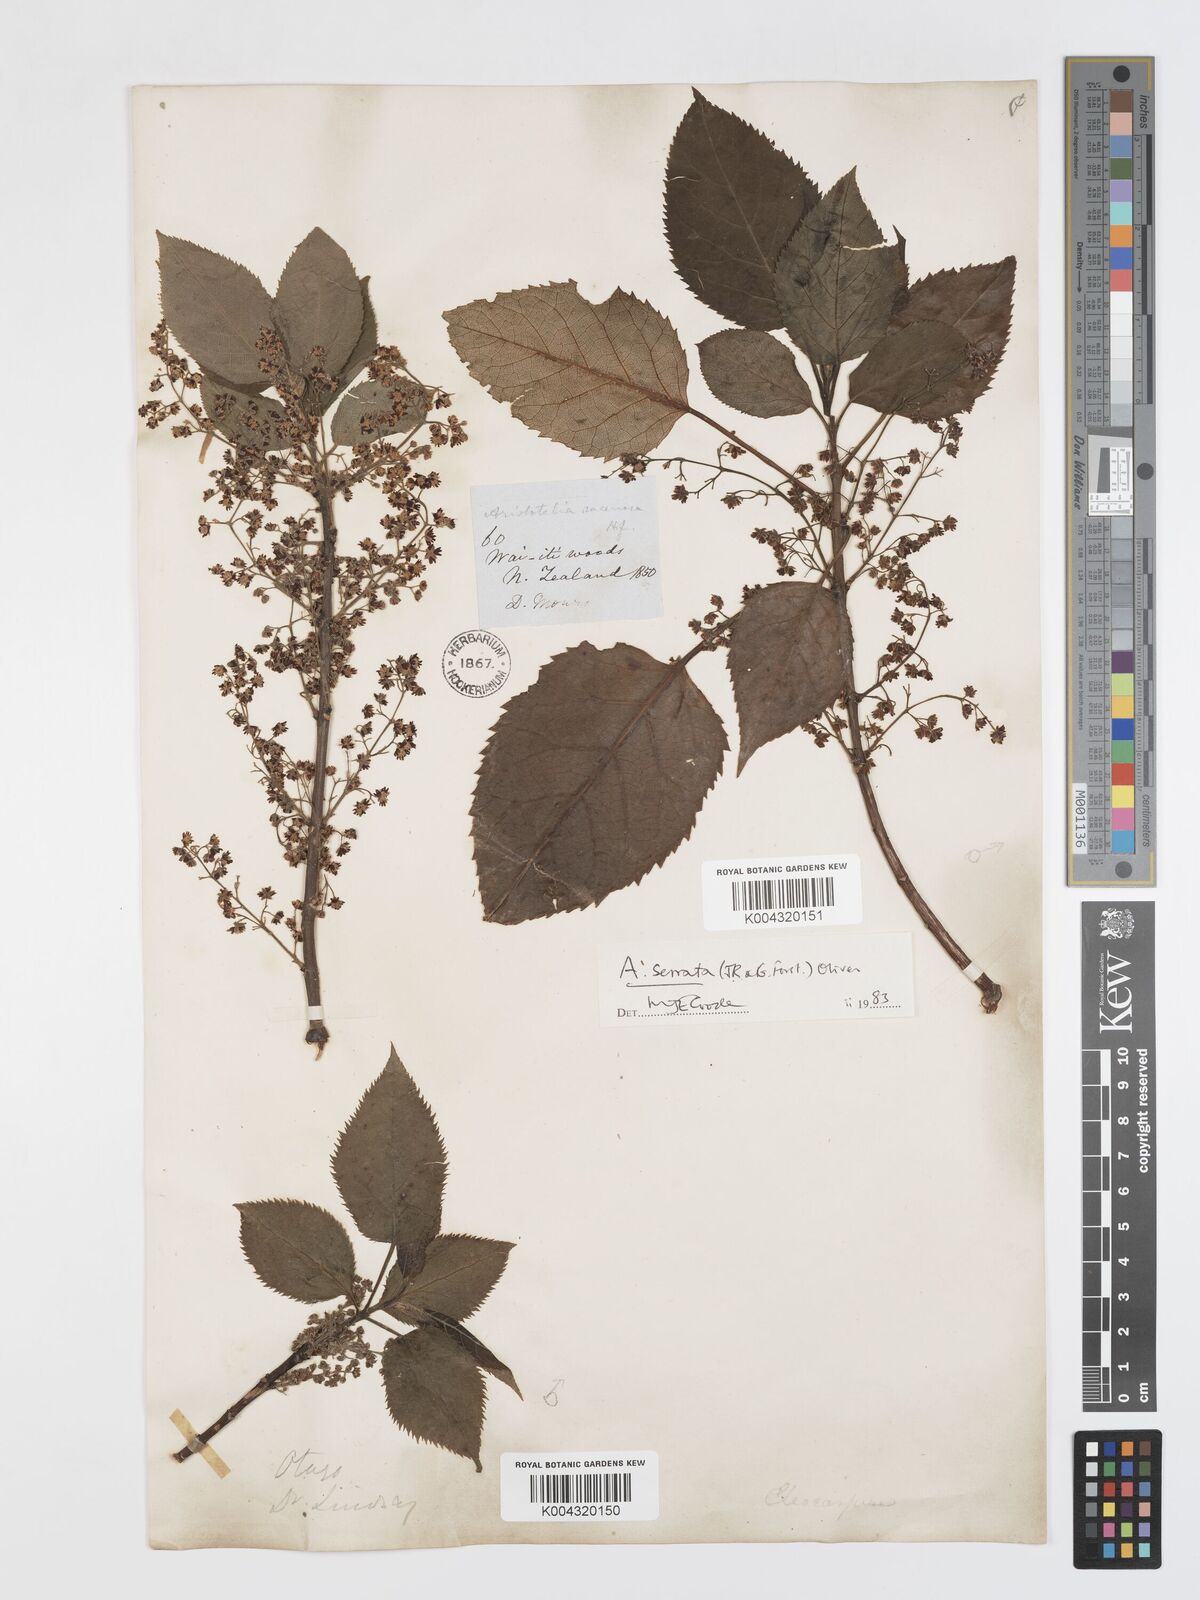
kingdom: Plantae
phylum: Tracheophyta
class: Magnoliopsida
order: Oxalidales
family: Elaeocarpaceae
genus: Aristotelia
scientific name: Aristotelia serrata
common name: New zealand wineberry
